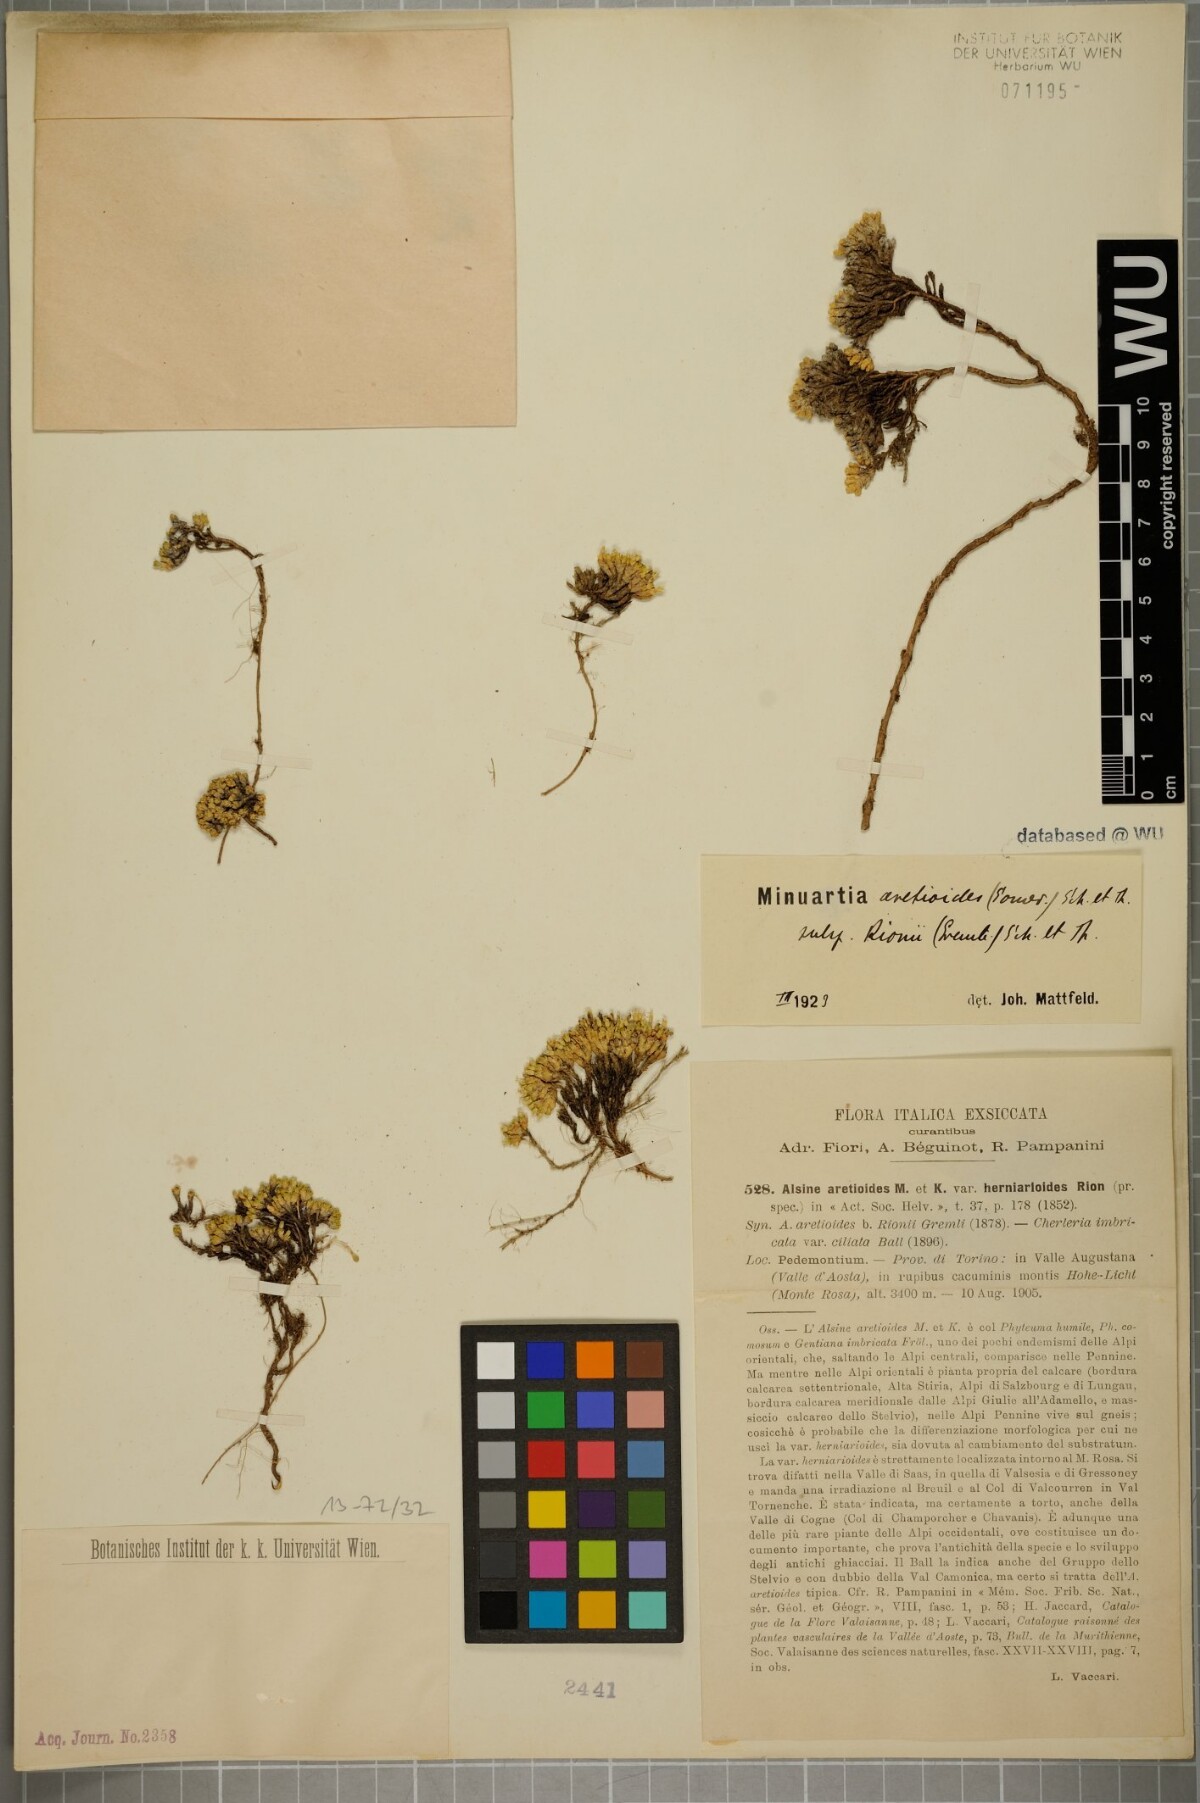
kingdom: Plantae
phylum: Tracheophyta
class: Magnoliopsida
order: Caryophyllales
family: Caryophyllaceae
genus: Facchinia
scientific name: Facchinia herniarioides
